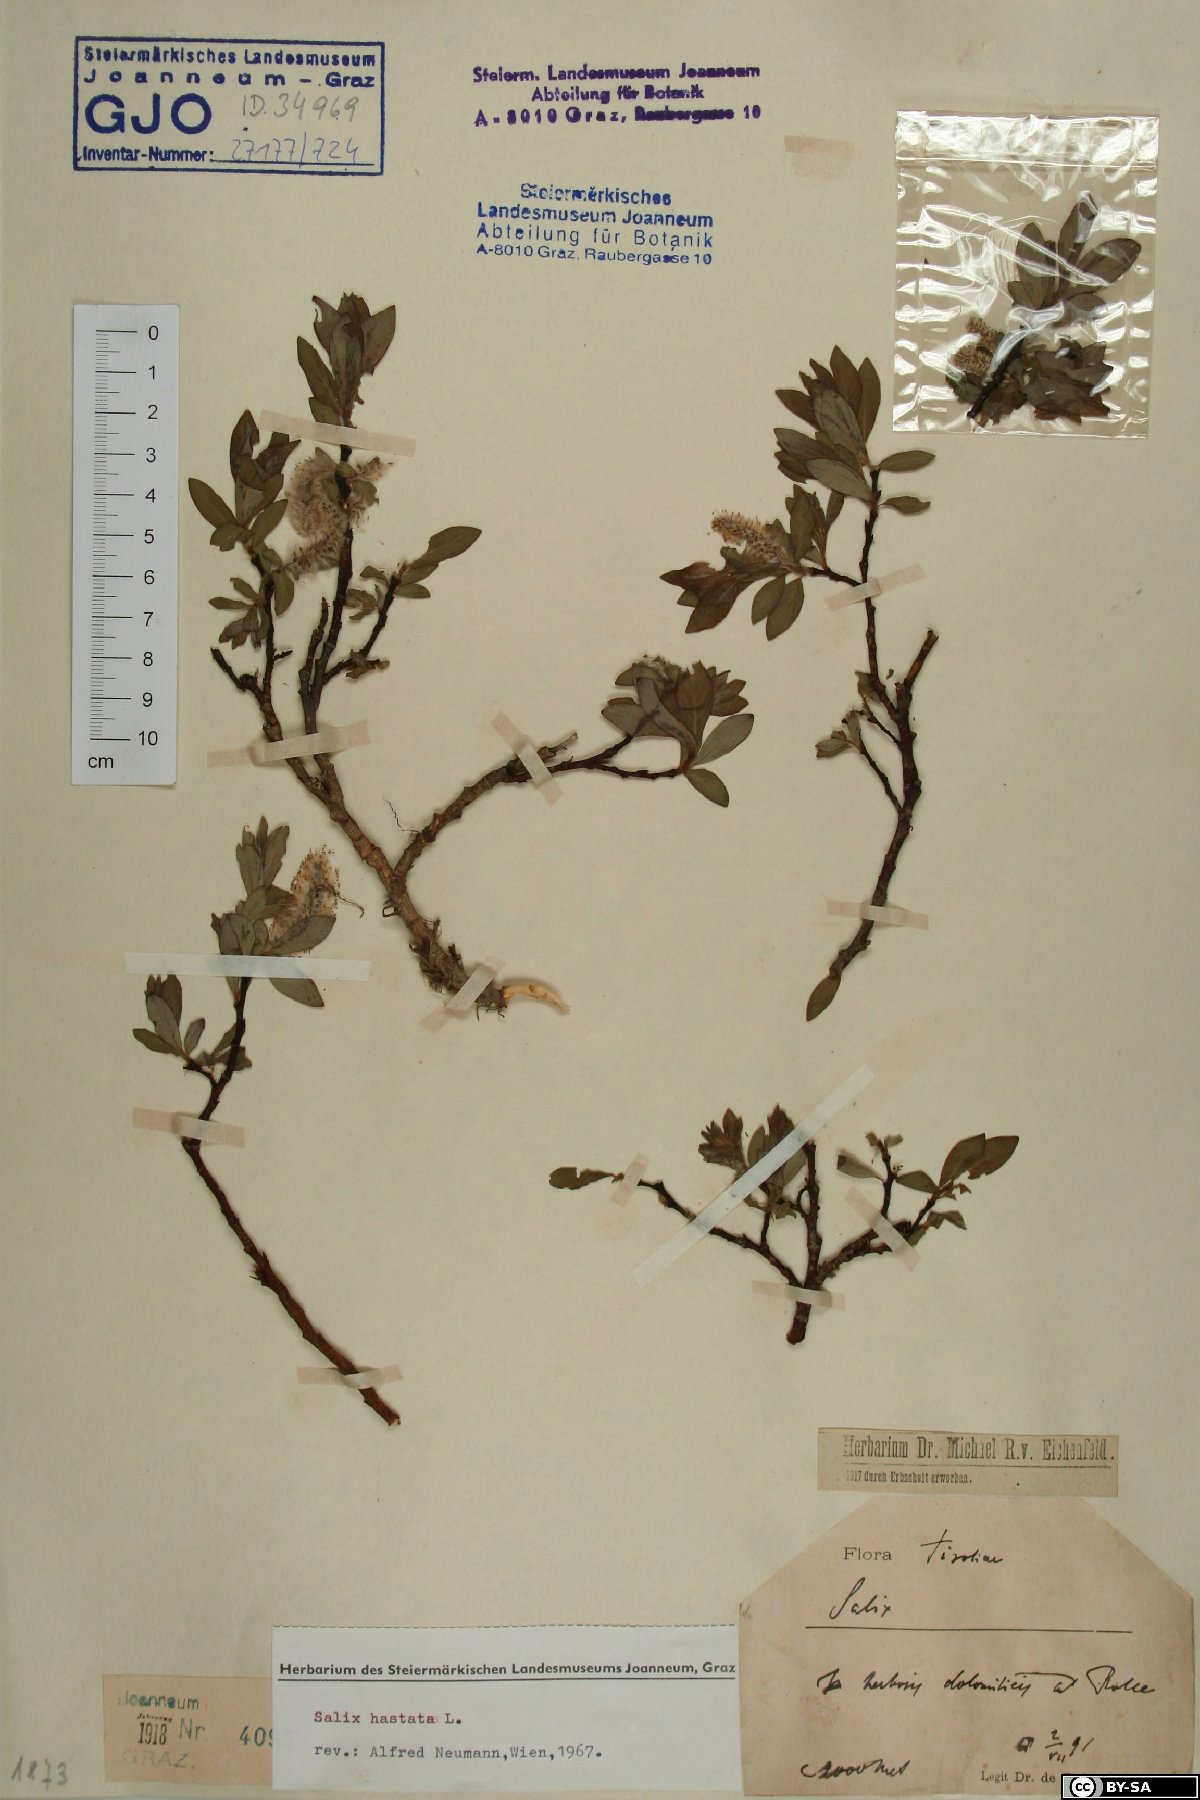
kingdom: Plantae
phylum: Tracheophyta
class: Magnoliopsida
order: Malpighiales
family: Salicaceae
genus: Salix
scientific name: Salix hastata
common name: Halberd willow
